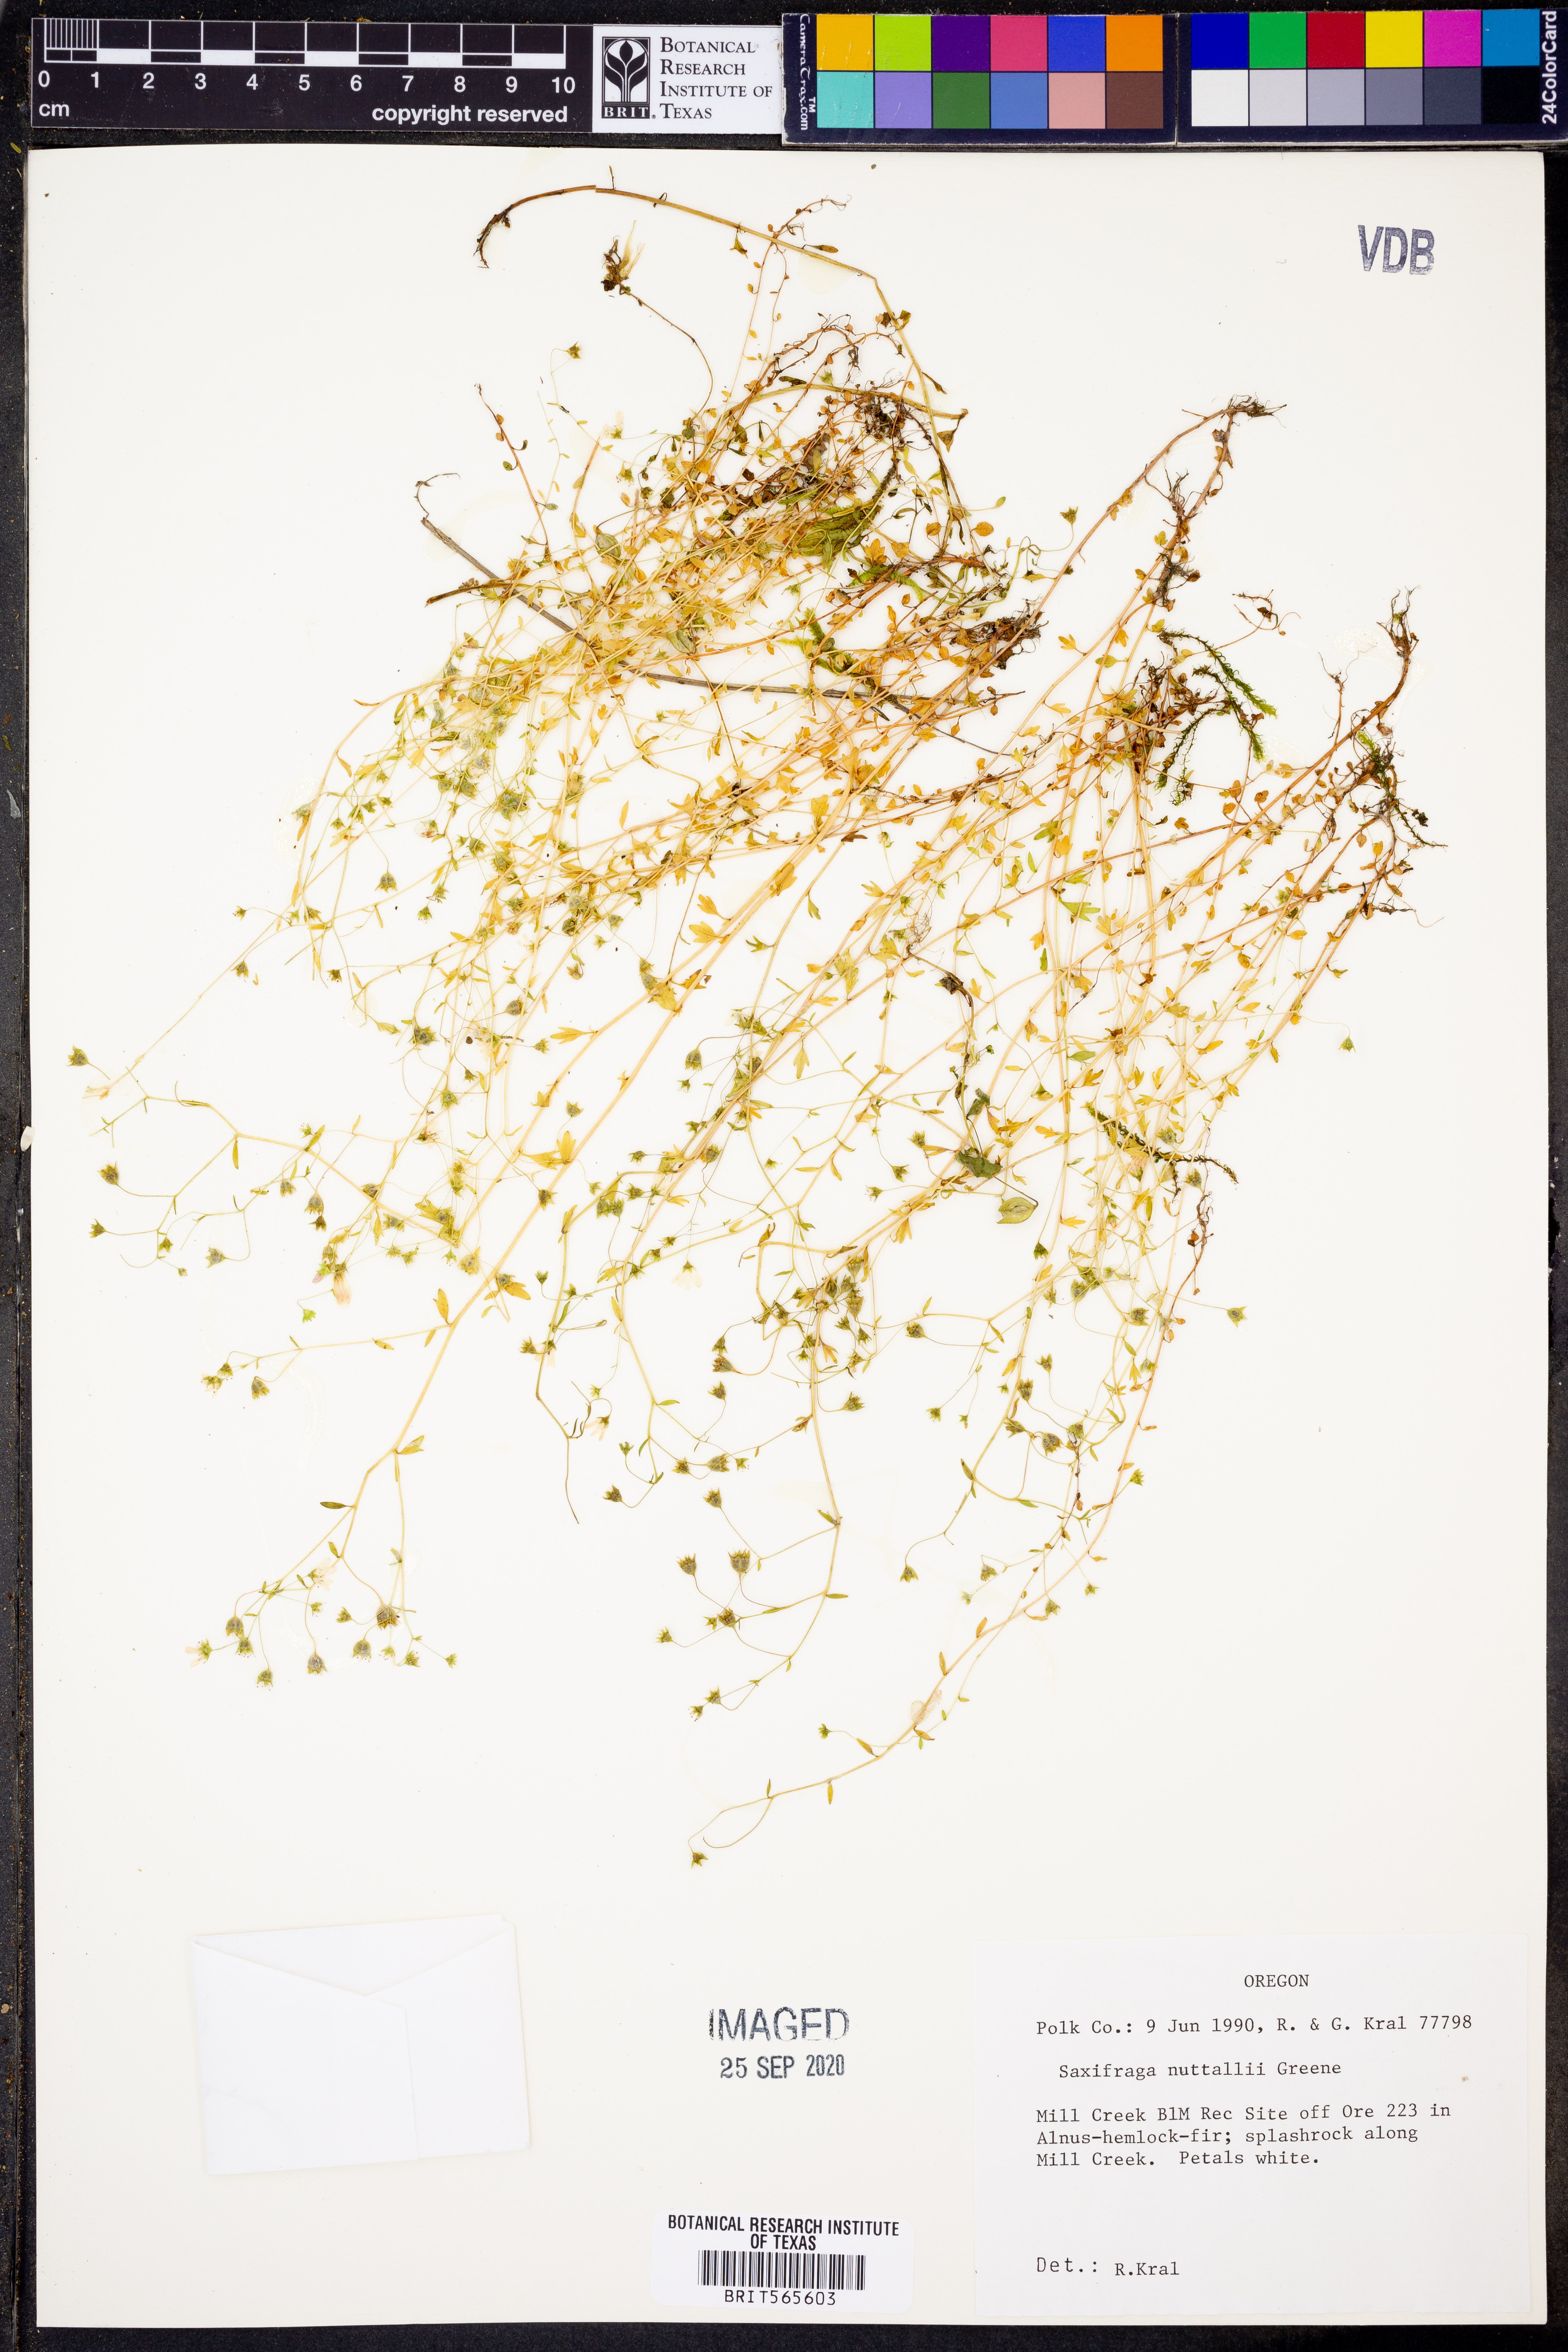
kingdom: Plantae
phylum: Tracheophyta
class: Magnoliopsida
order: Saxifragales
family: Saxifragaceae
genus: Cascadia
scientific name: Cascadia nuttallii
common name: Nuttall's saxifrage
